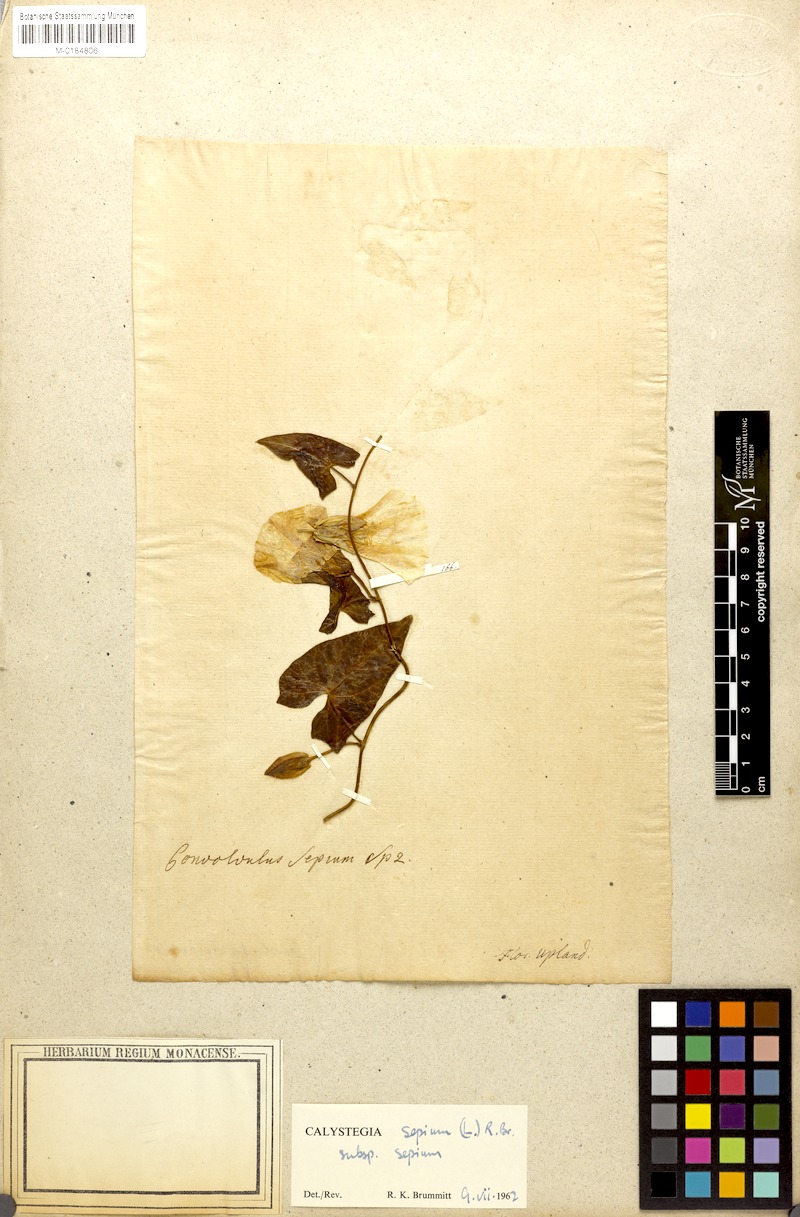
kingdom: Plantae
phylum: Tracheophyta
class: Magnoliopsida
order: Solanales
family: Convolvulaceae
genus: Calystegia
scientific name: Calystegia sepium
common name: Hedge bindweed
